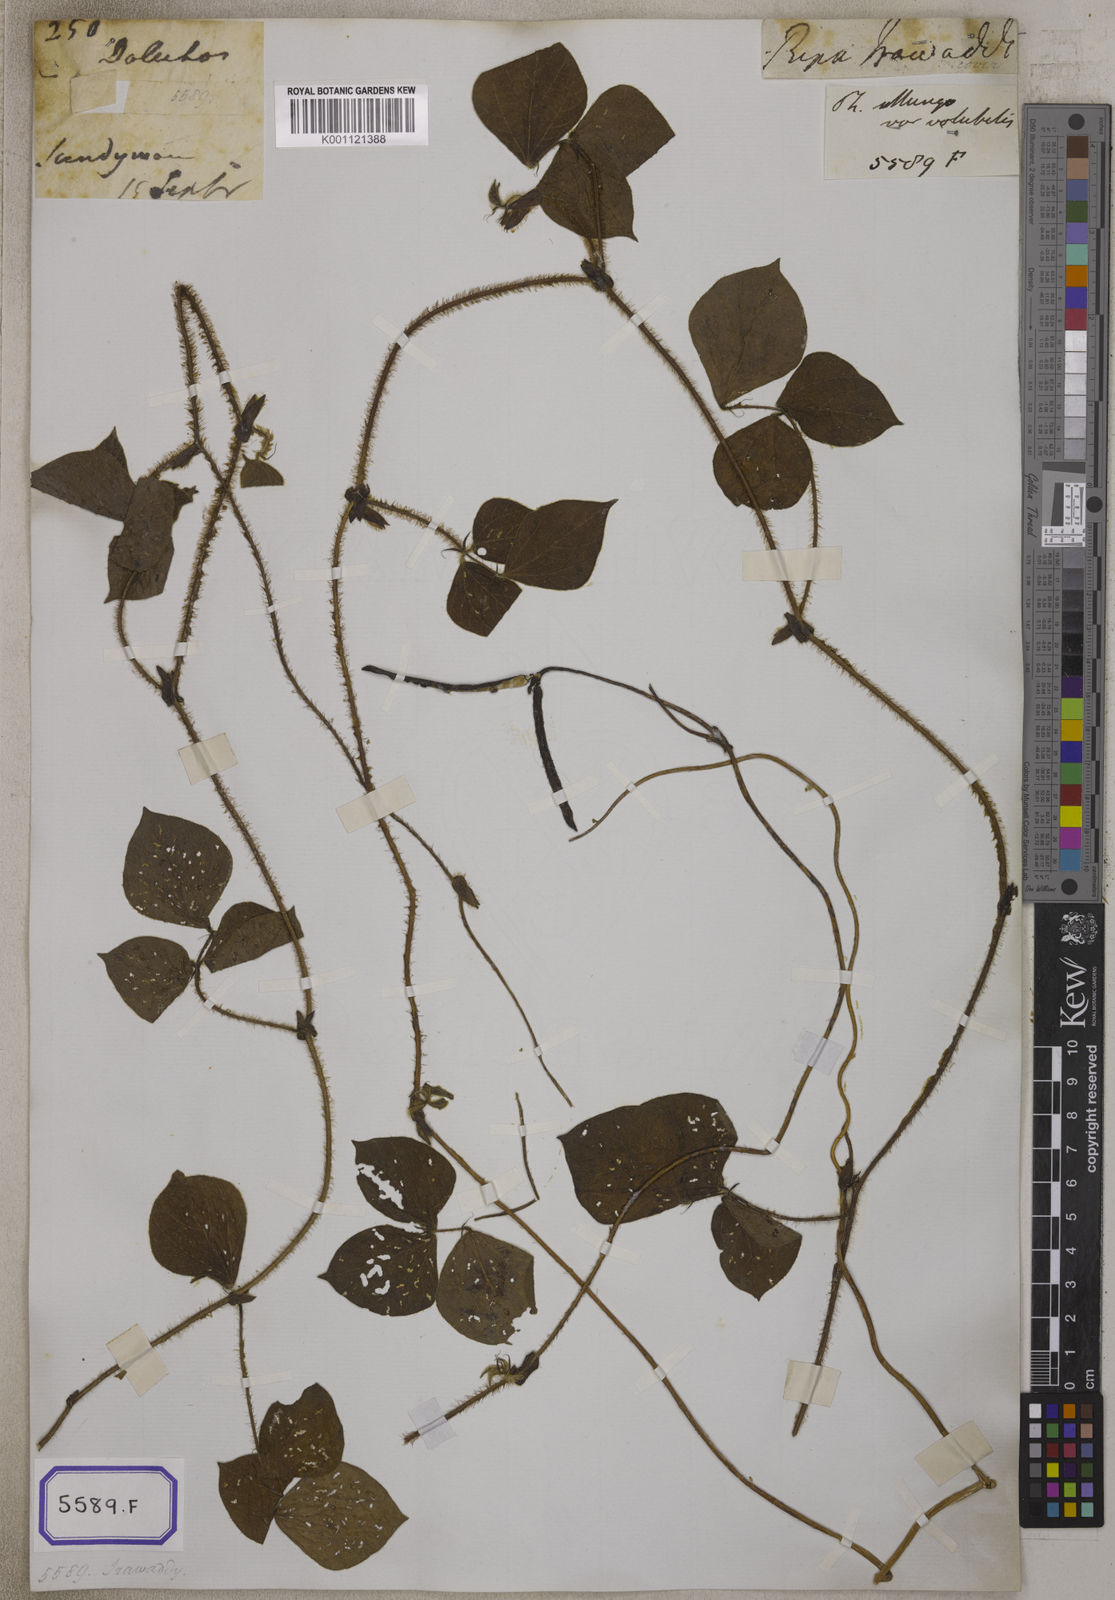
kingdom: Plantae
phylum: Tracheophyta
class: Magnoliopsida
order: Fabales
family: Fabaceae
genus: Phaseolus
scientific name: Phaseolus
